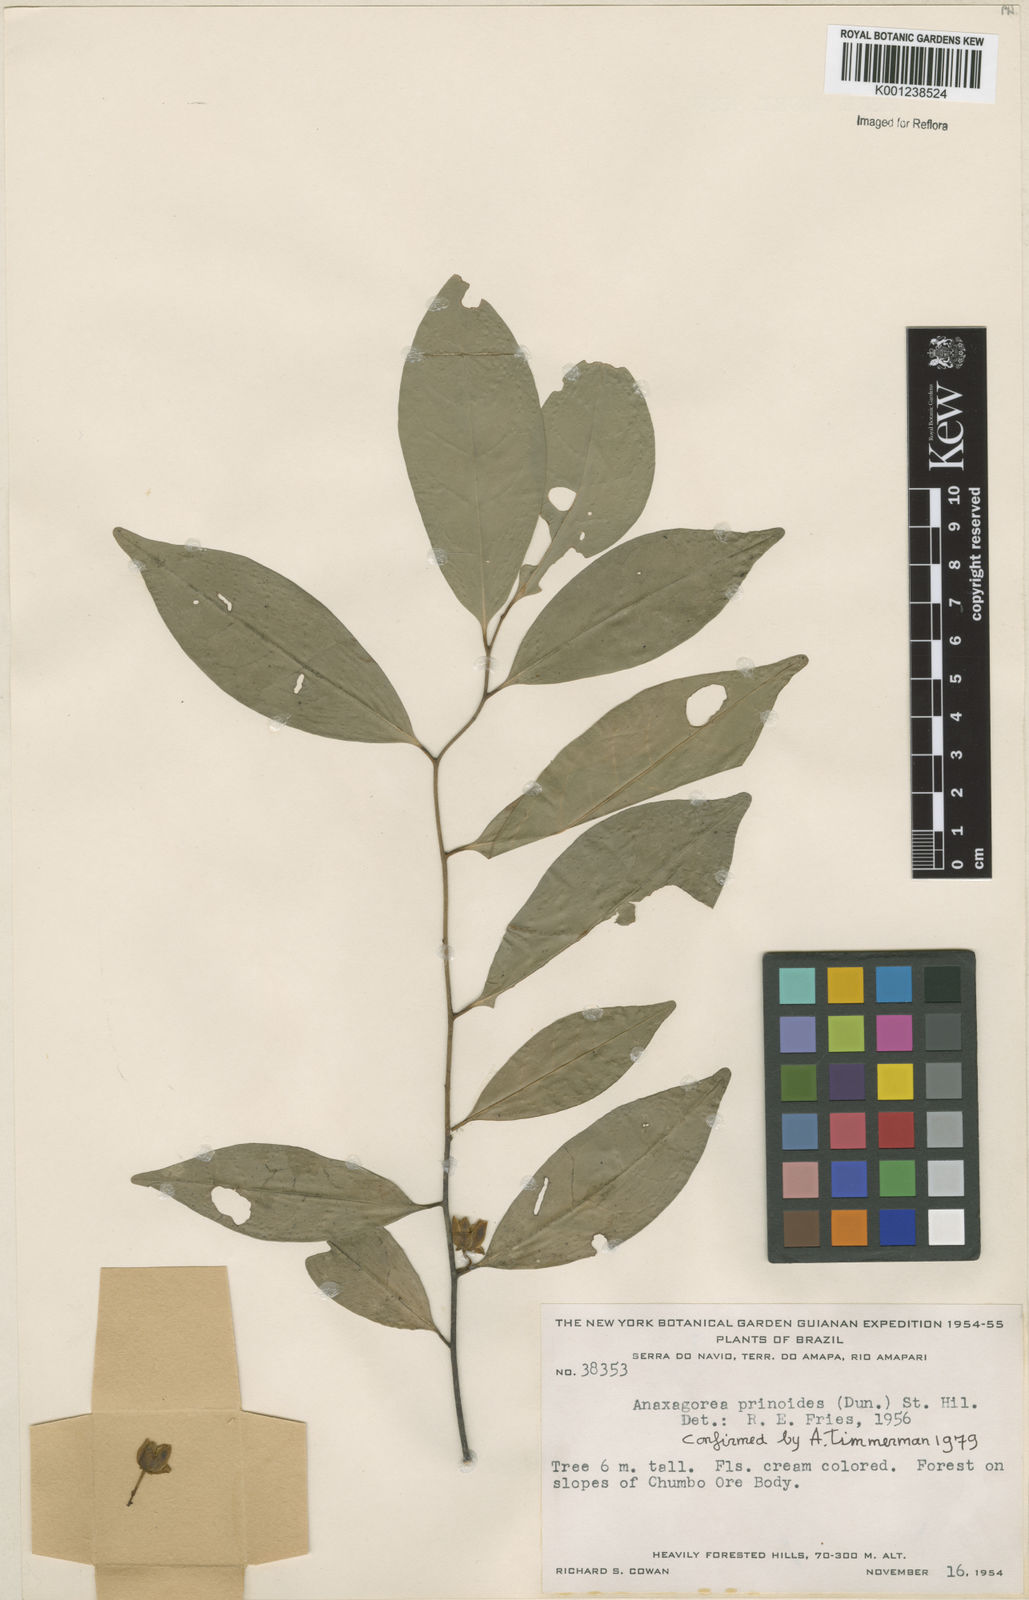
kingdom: Plantae
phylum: Tracheophyta
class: Magnoliopsida
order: Magnoliales
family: Annonaceae
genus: Anaxagorea
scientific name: Anaxagorea prinoides
